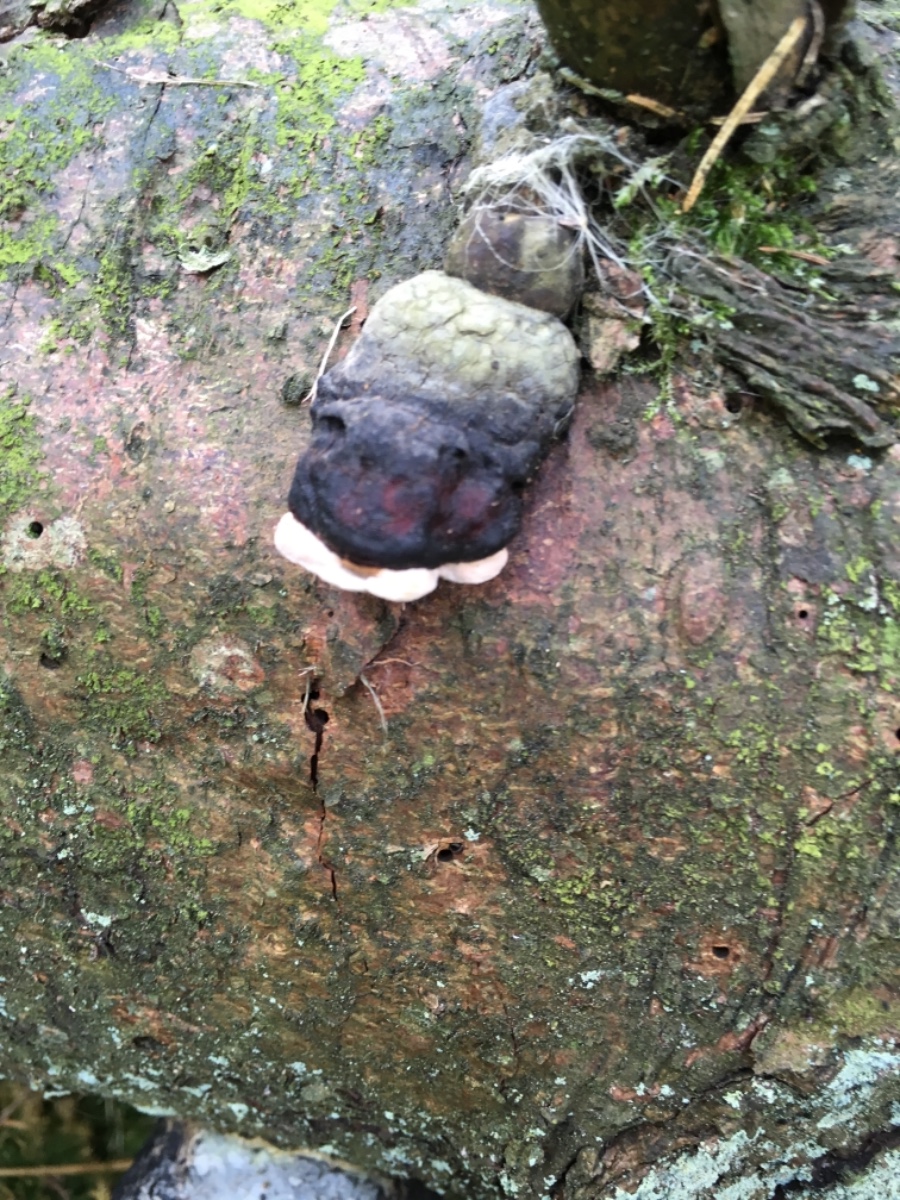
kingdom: Fungi
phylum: Basidiomycota
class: Agaricomycetes
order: Polyporales
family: Fomitopsidaceae
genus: Fomitopsis
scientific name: Fomitopsis pinicola
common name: randbæltet hovporesvamp
